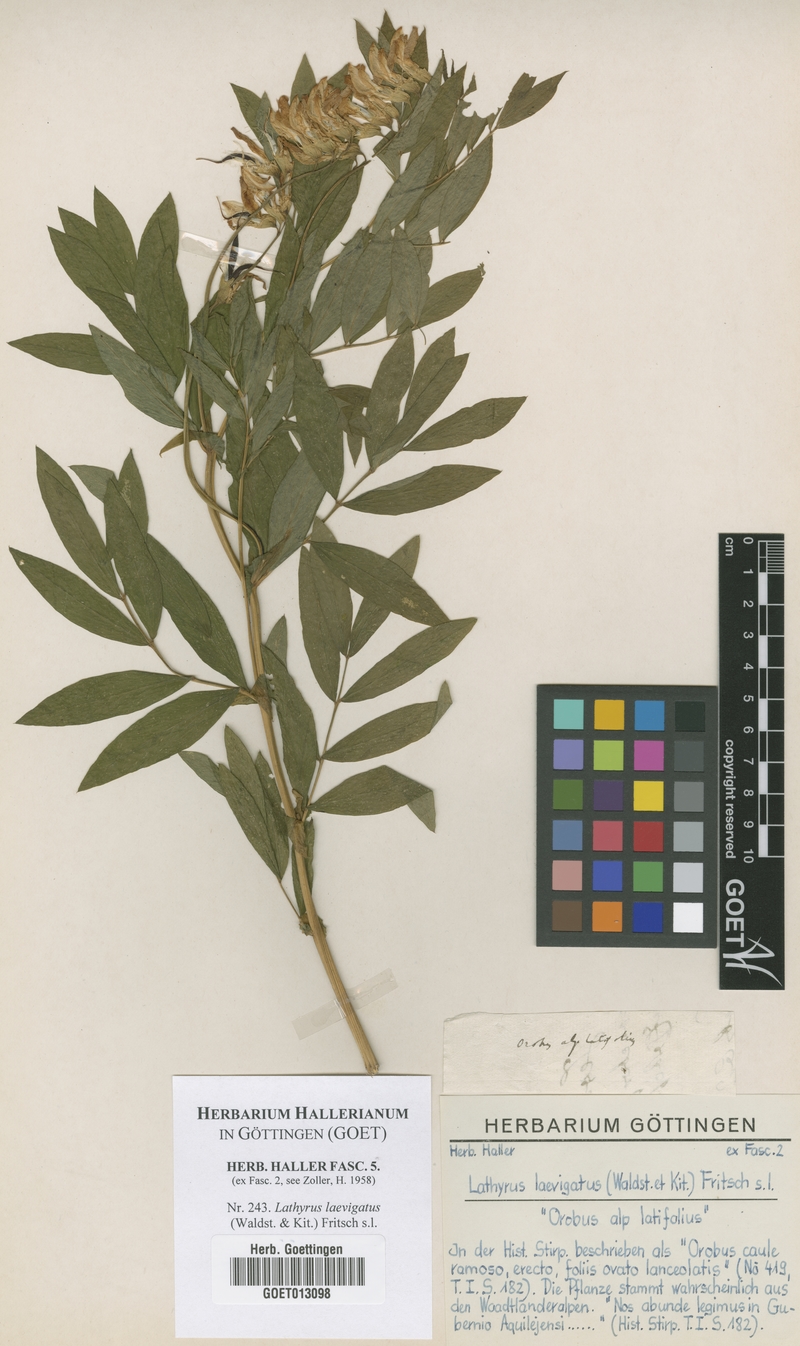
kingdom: Plantae
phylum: Tracheophyta
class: Magnoliopsida
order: Fabales
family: Fabaceae
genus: Lathyrus
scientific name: Lathyrus laevigatus
